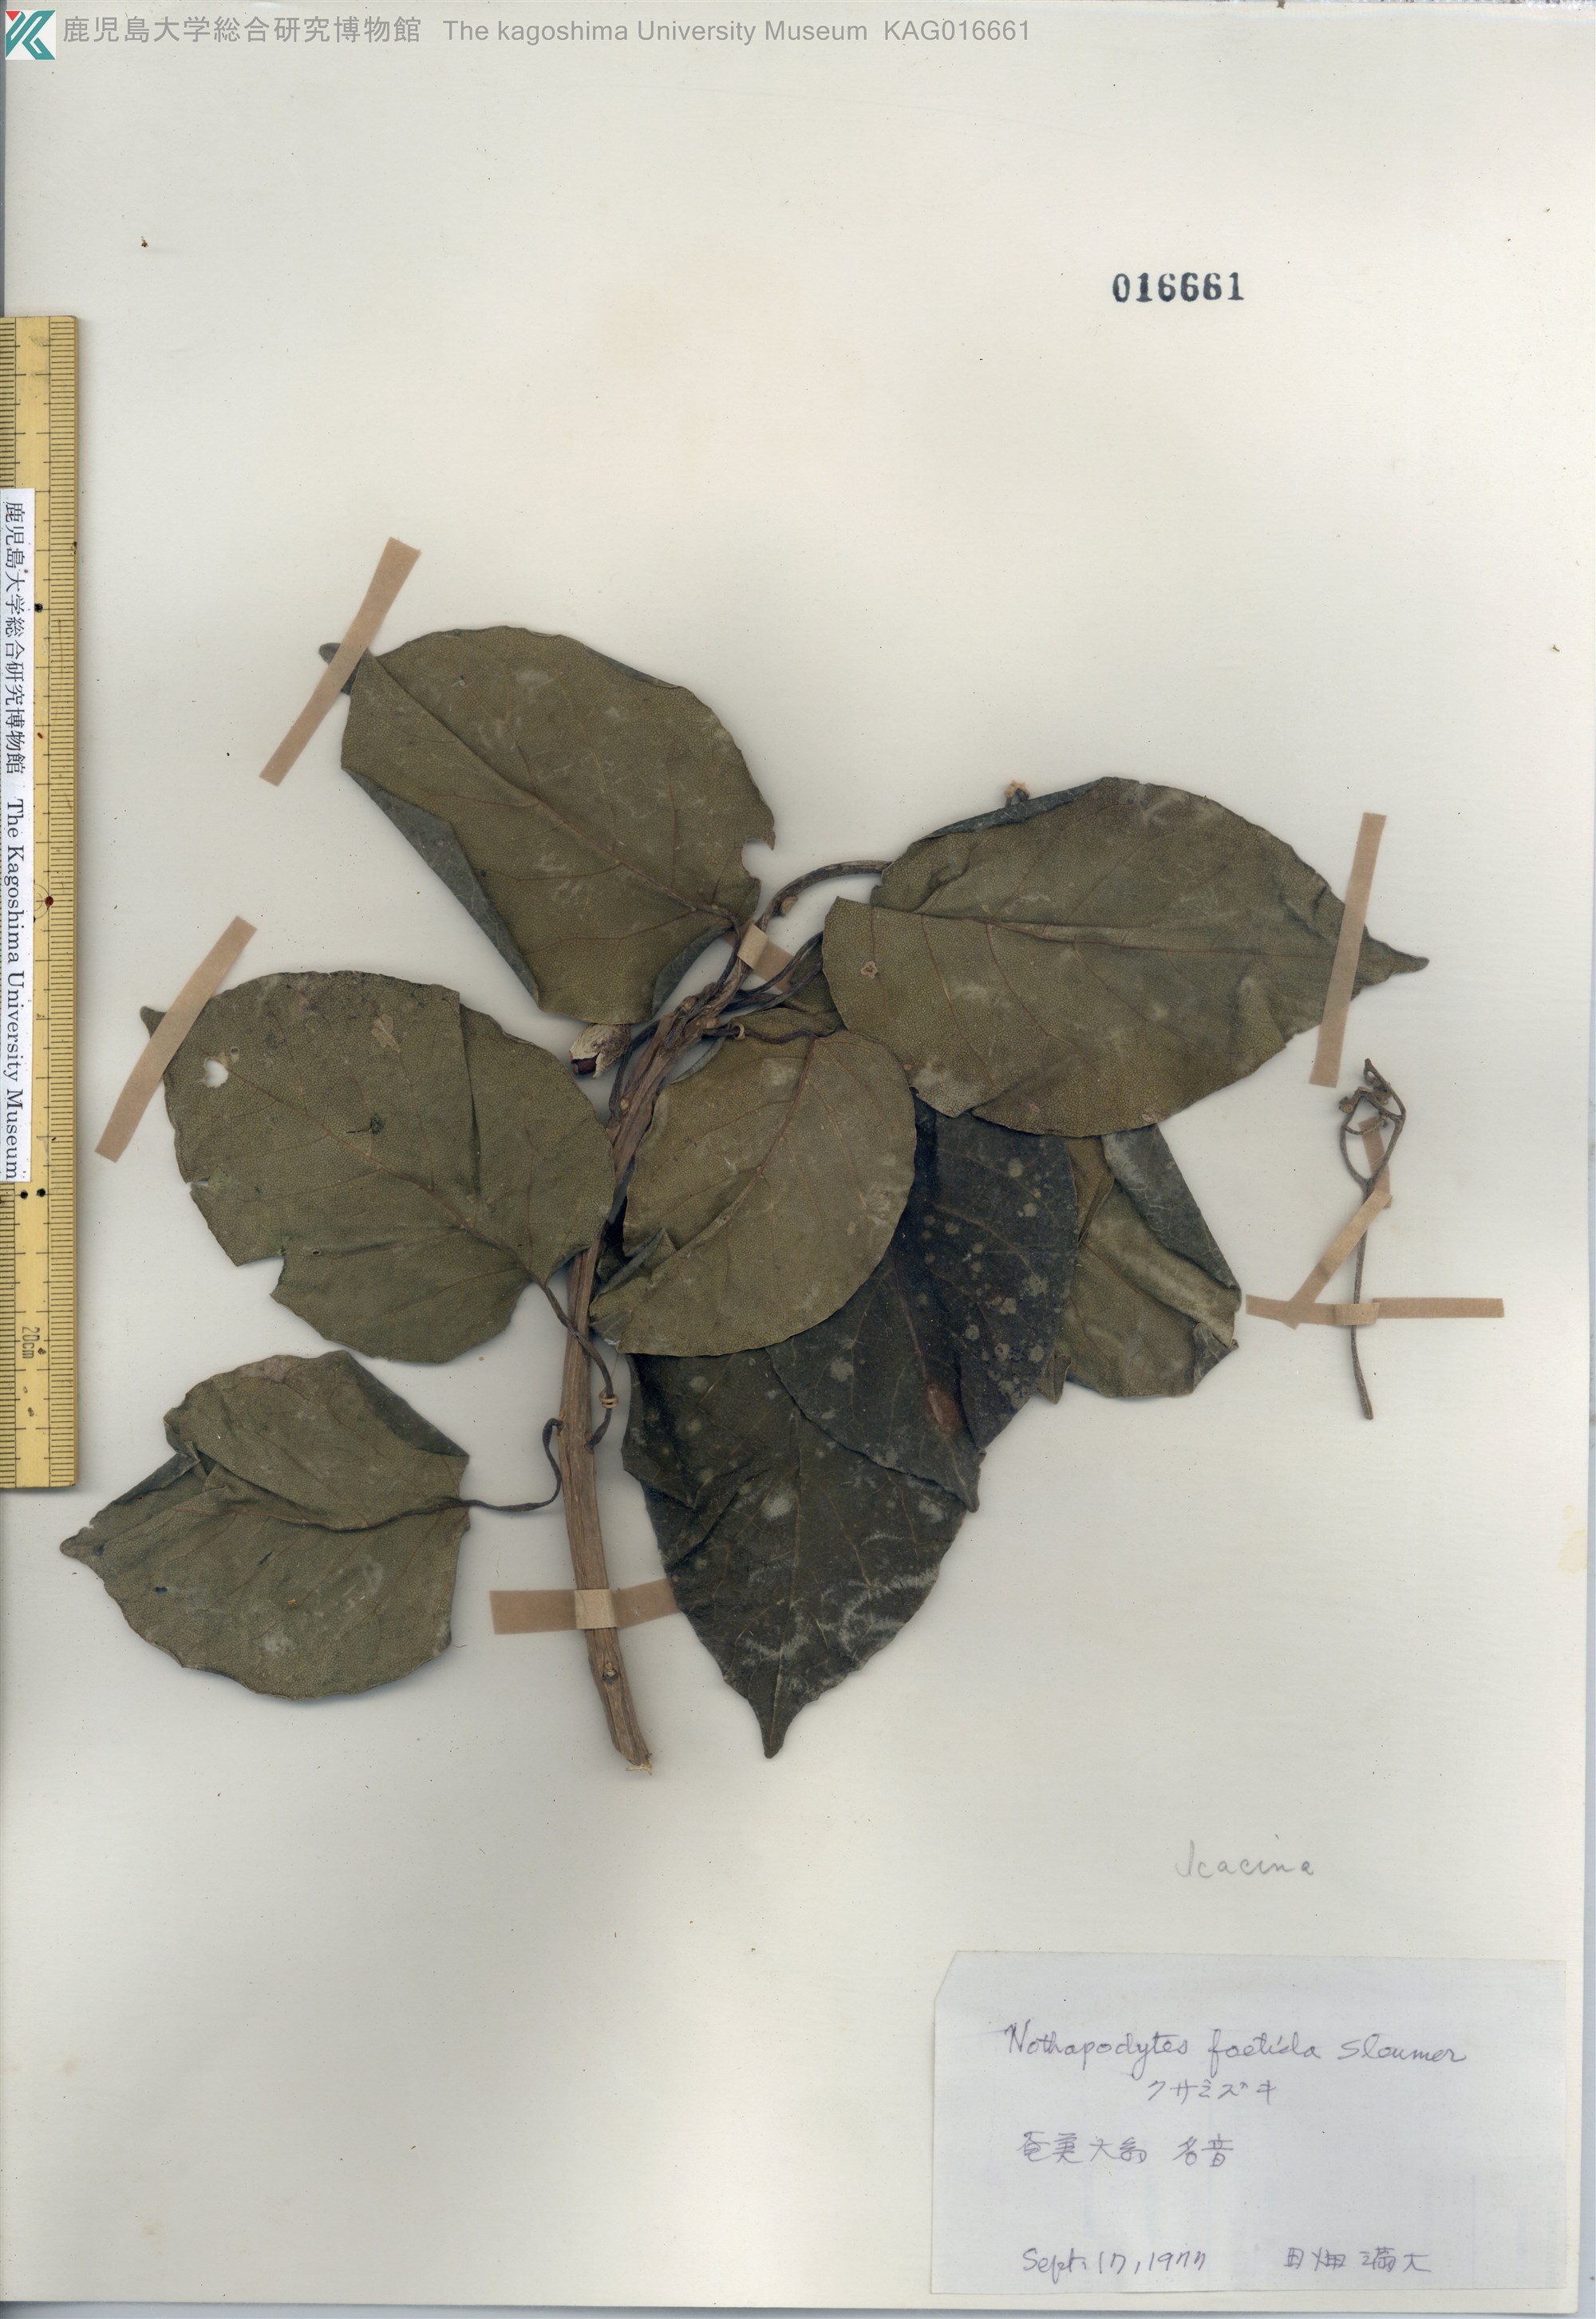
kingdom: Plantae
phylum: Tracheophyta
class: Magnoliopsida
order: Icacinales
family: Icacinaceae
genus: Nothapodytes
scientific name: Nothapodytes insularis
